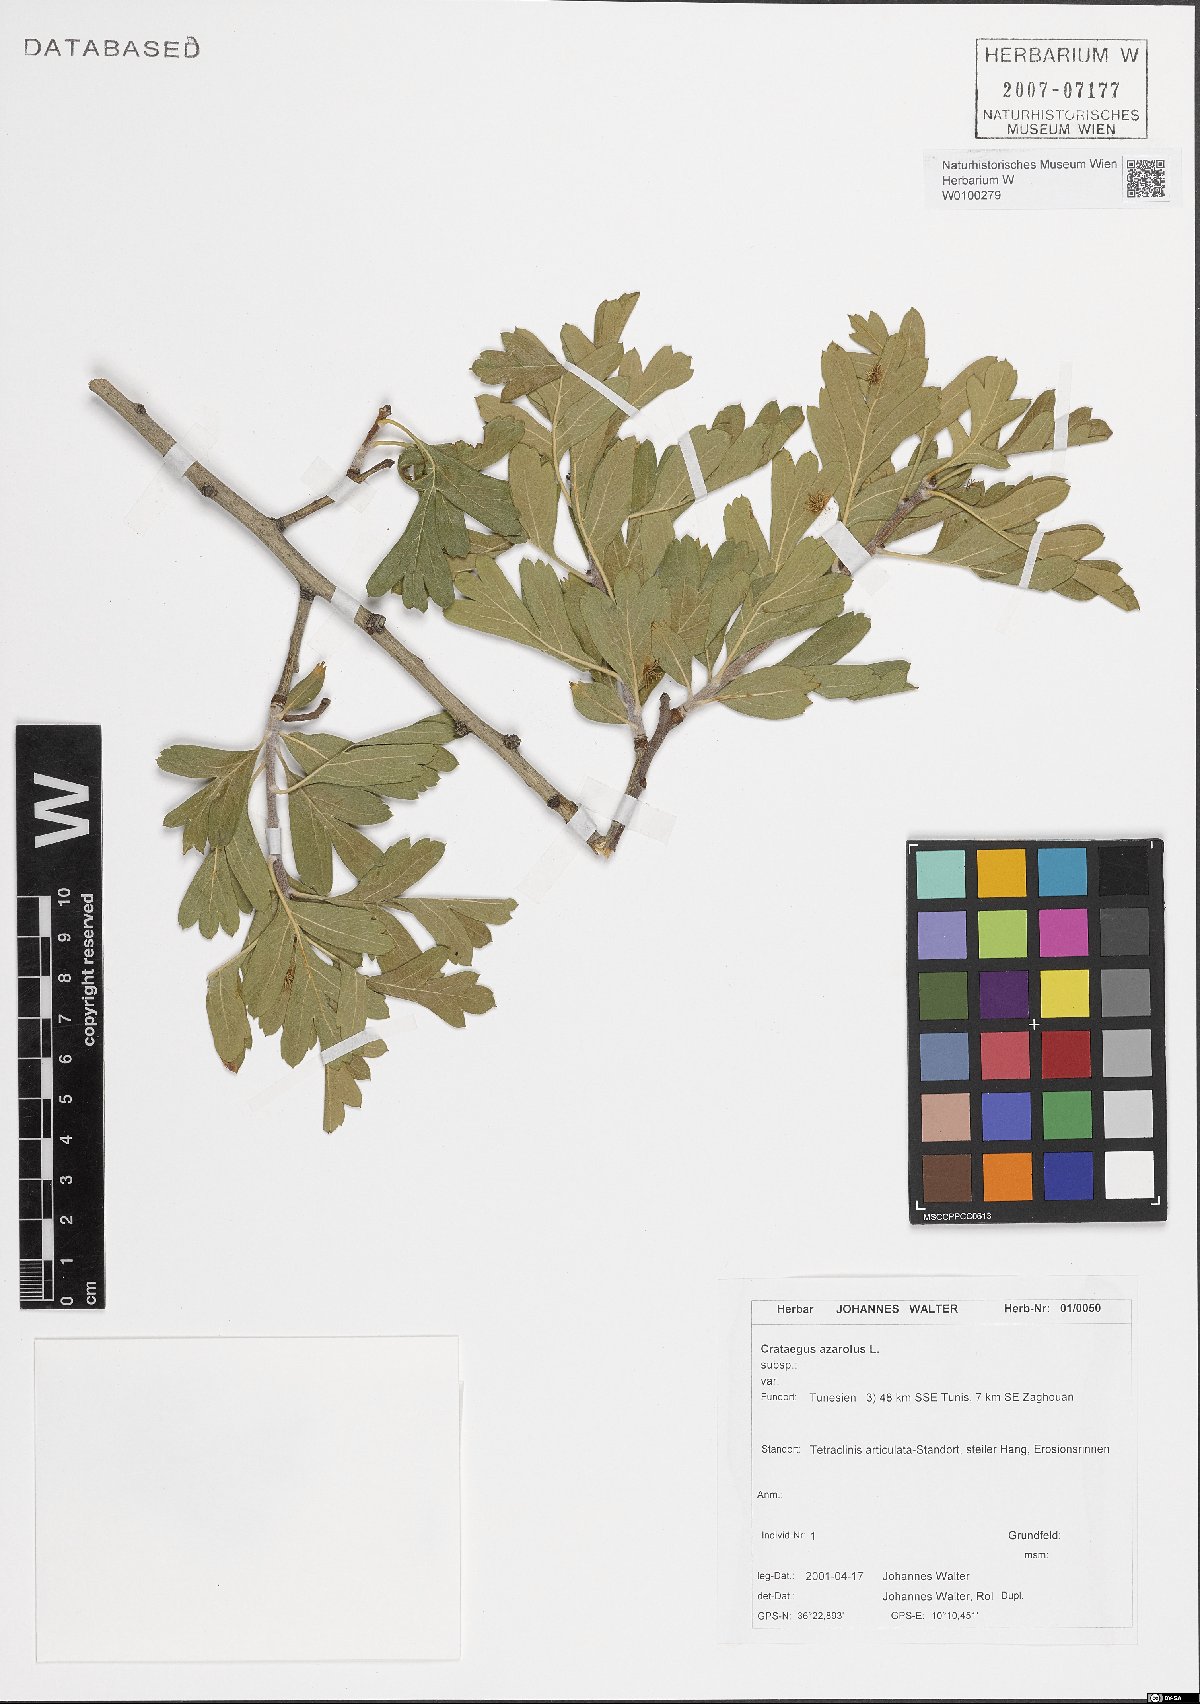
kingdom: Plantae
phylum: Tracheophyta
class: Magnoliopsida
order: Rosales
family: Rosaceae
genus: Crataegus
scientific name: Crataegus azarolus
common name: Azarole
